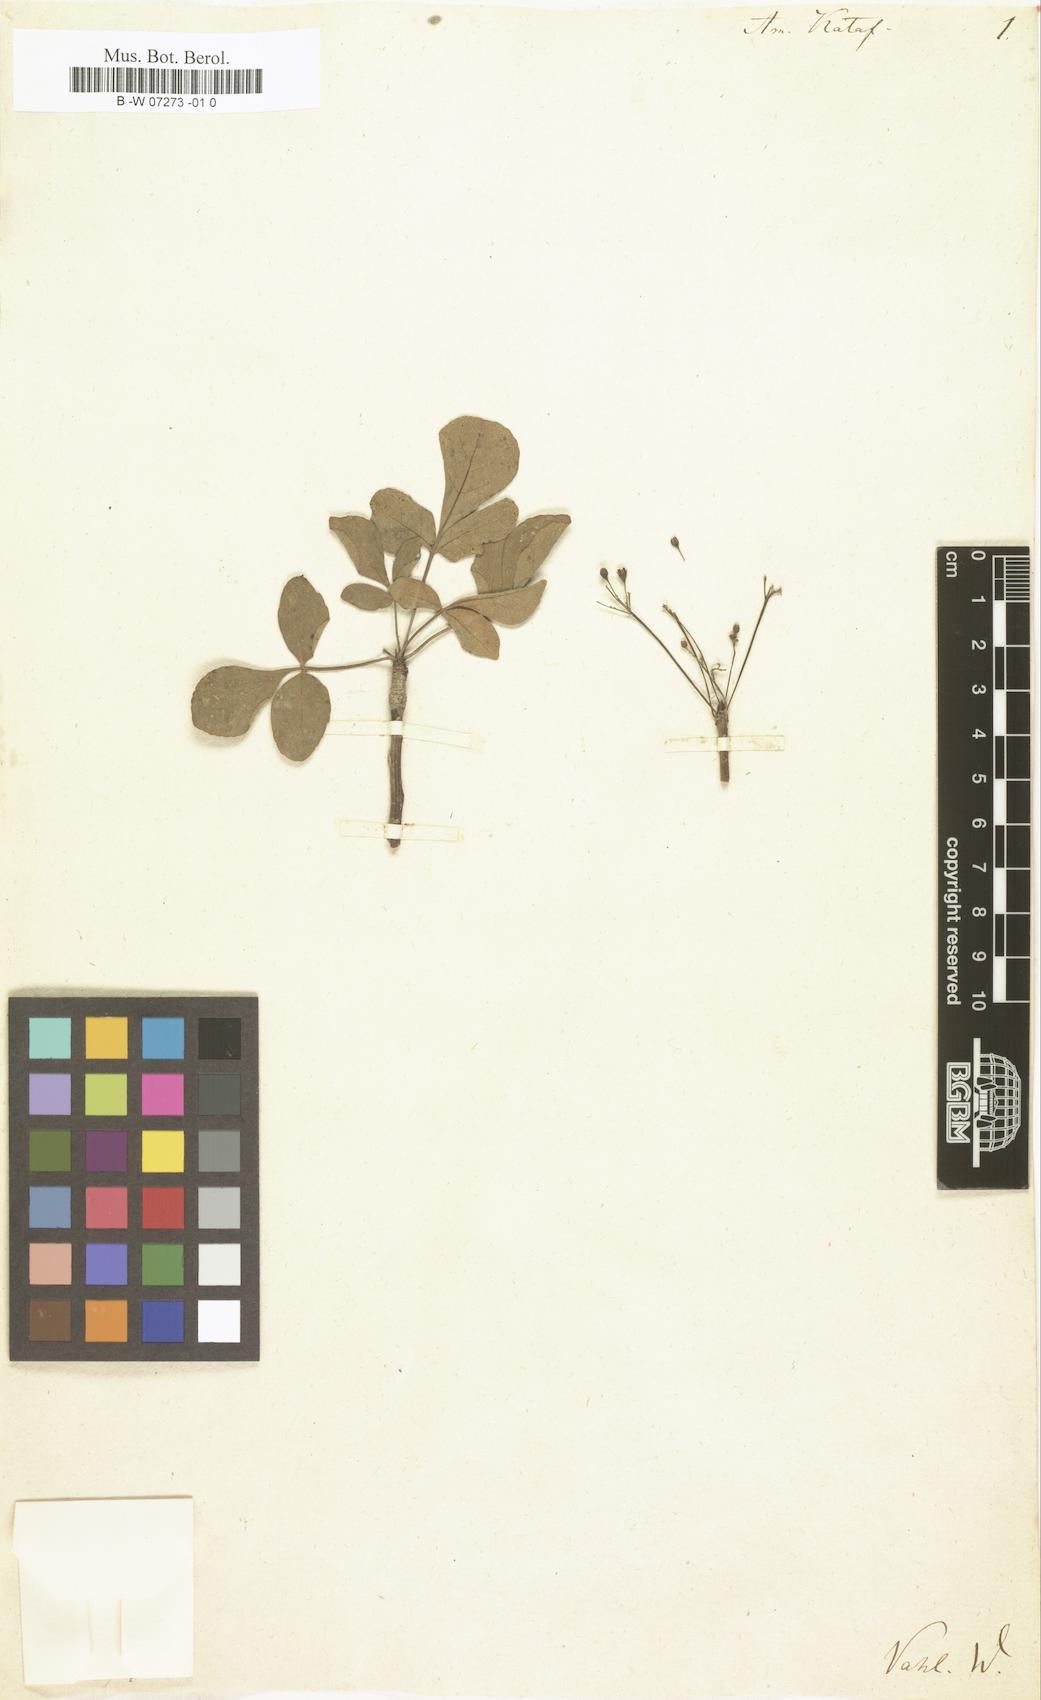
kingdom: Plantae
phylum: Tracheophyta
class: Magnoliopsida
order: Sapindales
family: Burseraceae
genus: Commiphora
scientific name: Commiphora kataf
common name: Bisabol myrrh
